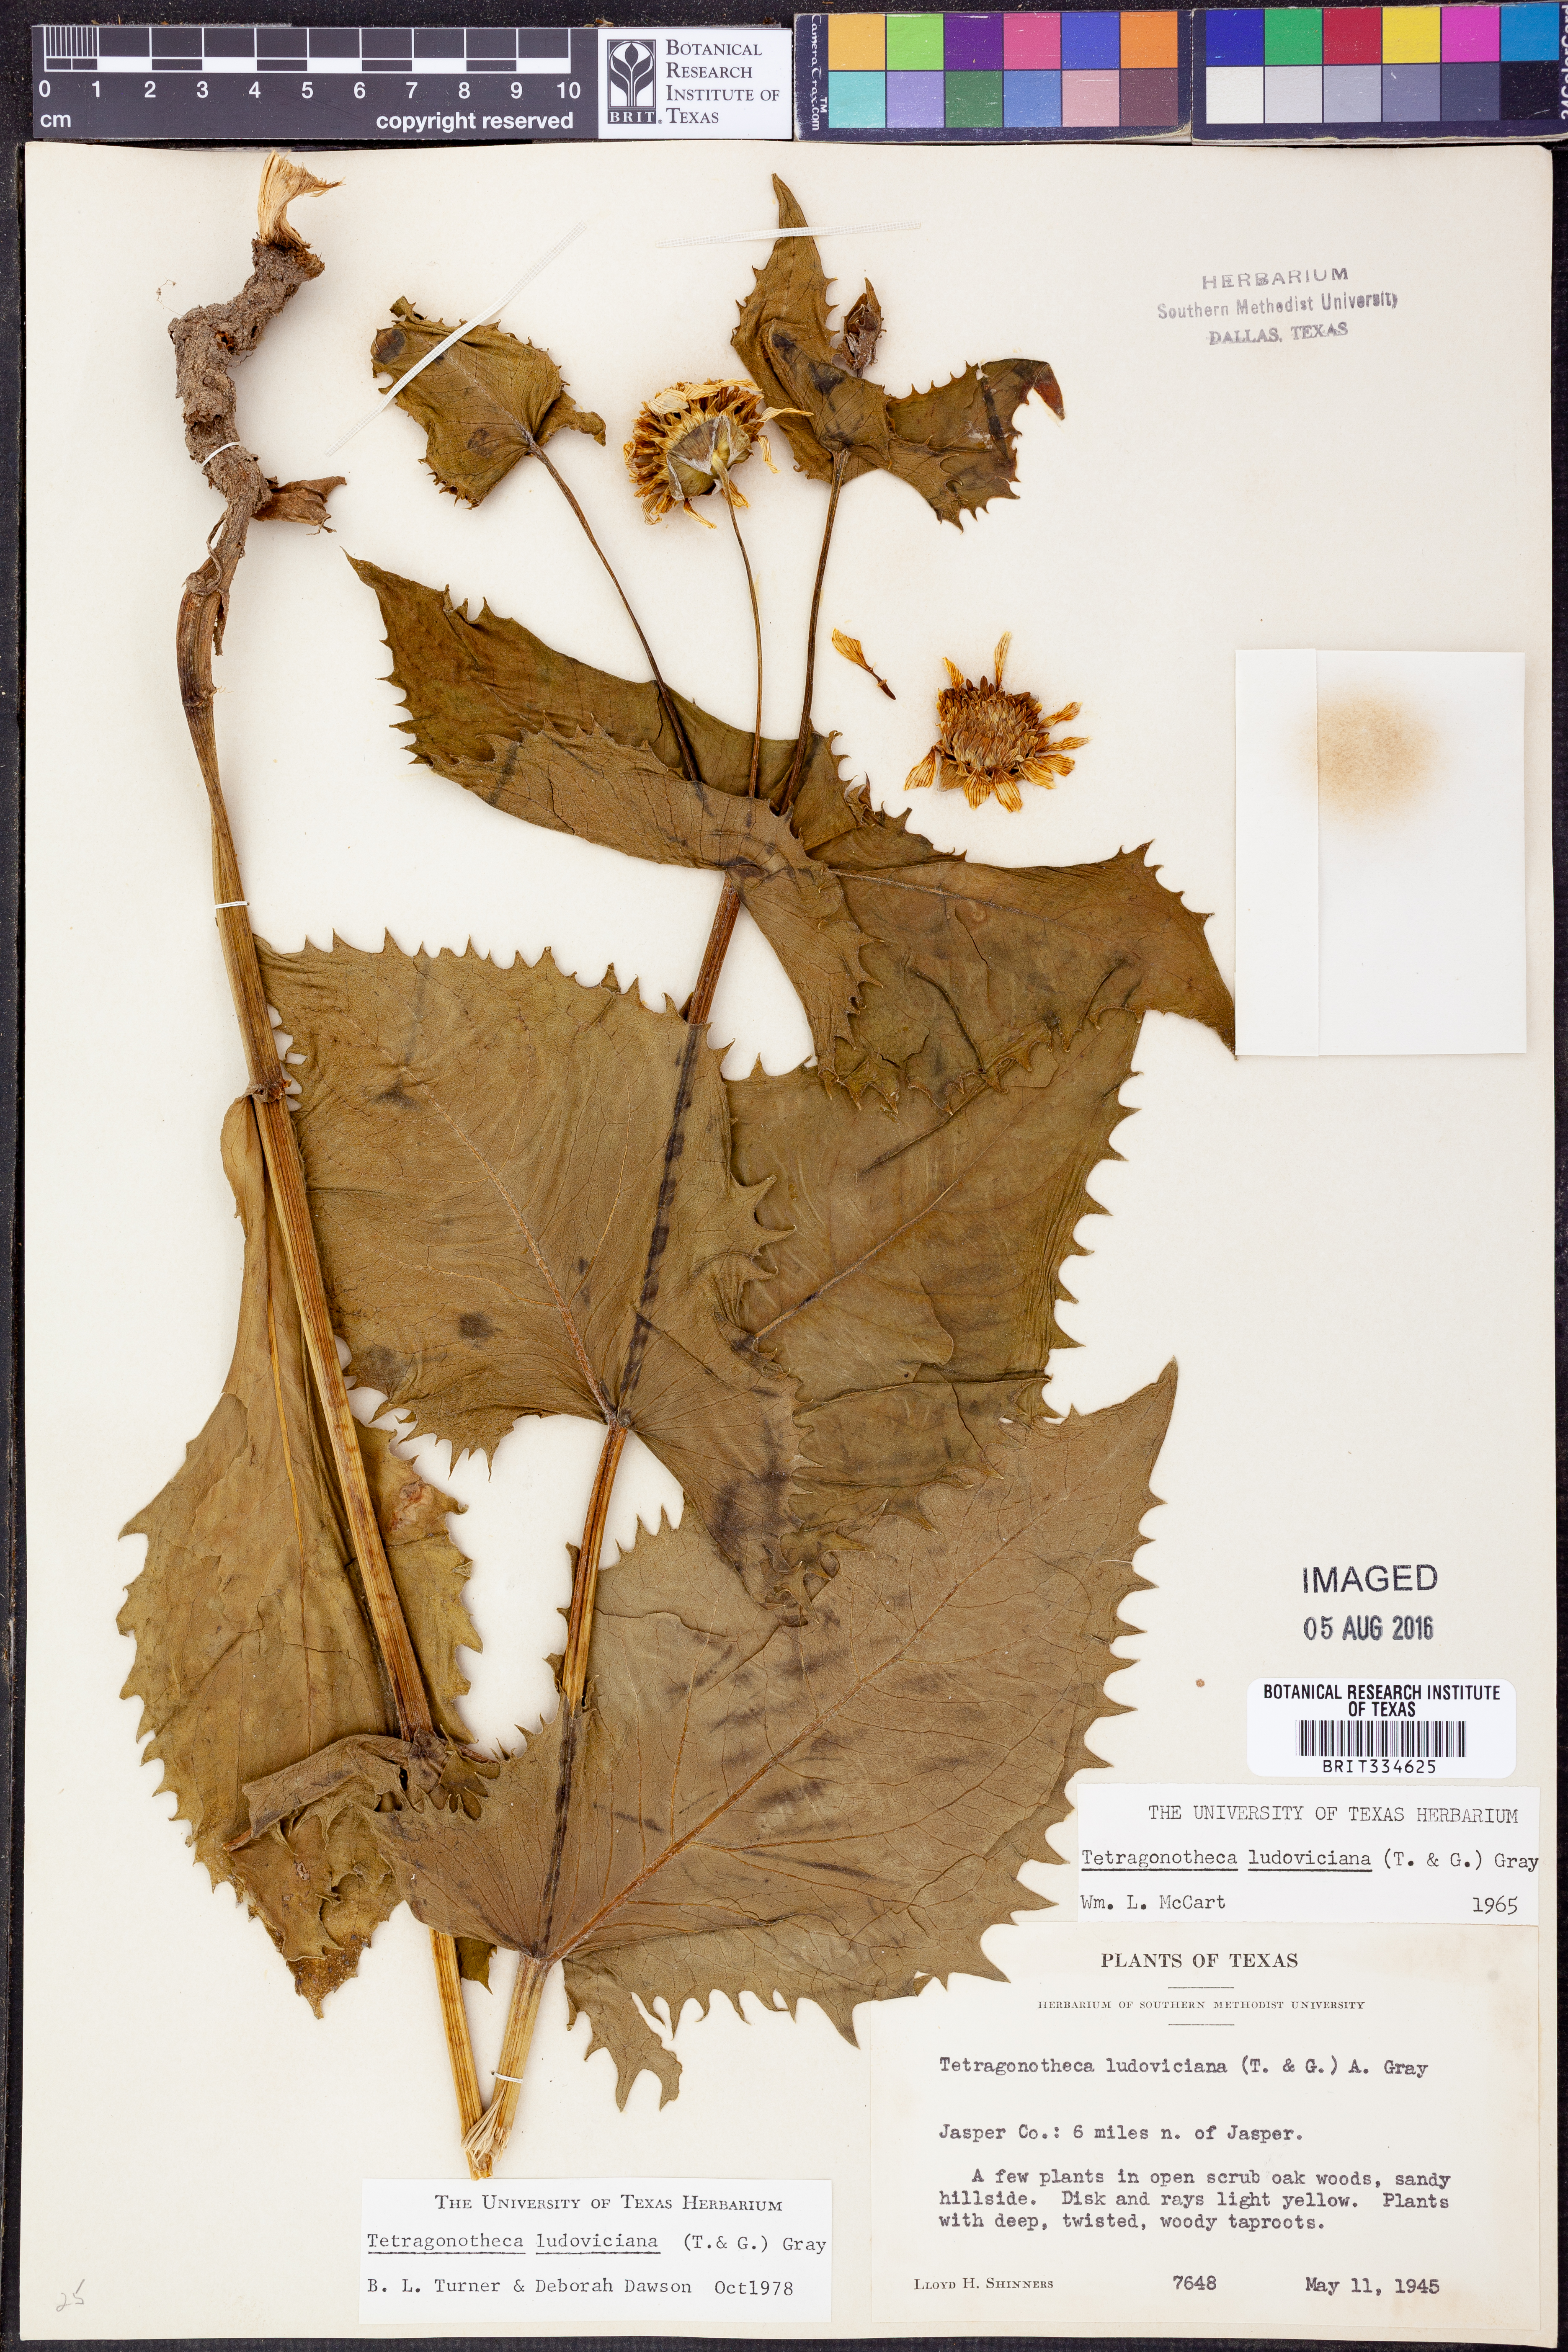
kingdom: Plantae
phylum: Tracheophyta
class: Magnoliopsida
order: Asterales
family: Asteraceae
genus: Tetragonotheca
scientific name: Tetragonotheca ludoviciana
